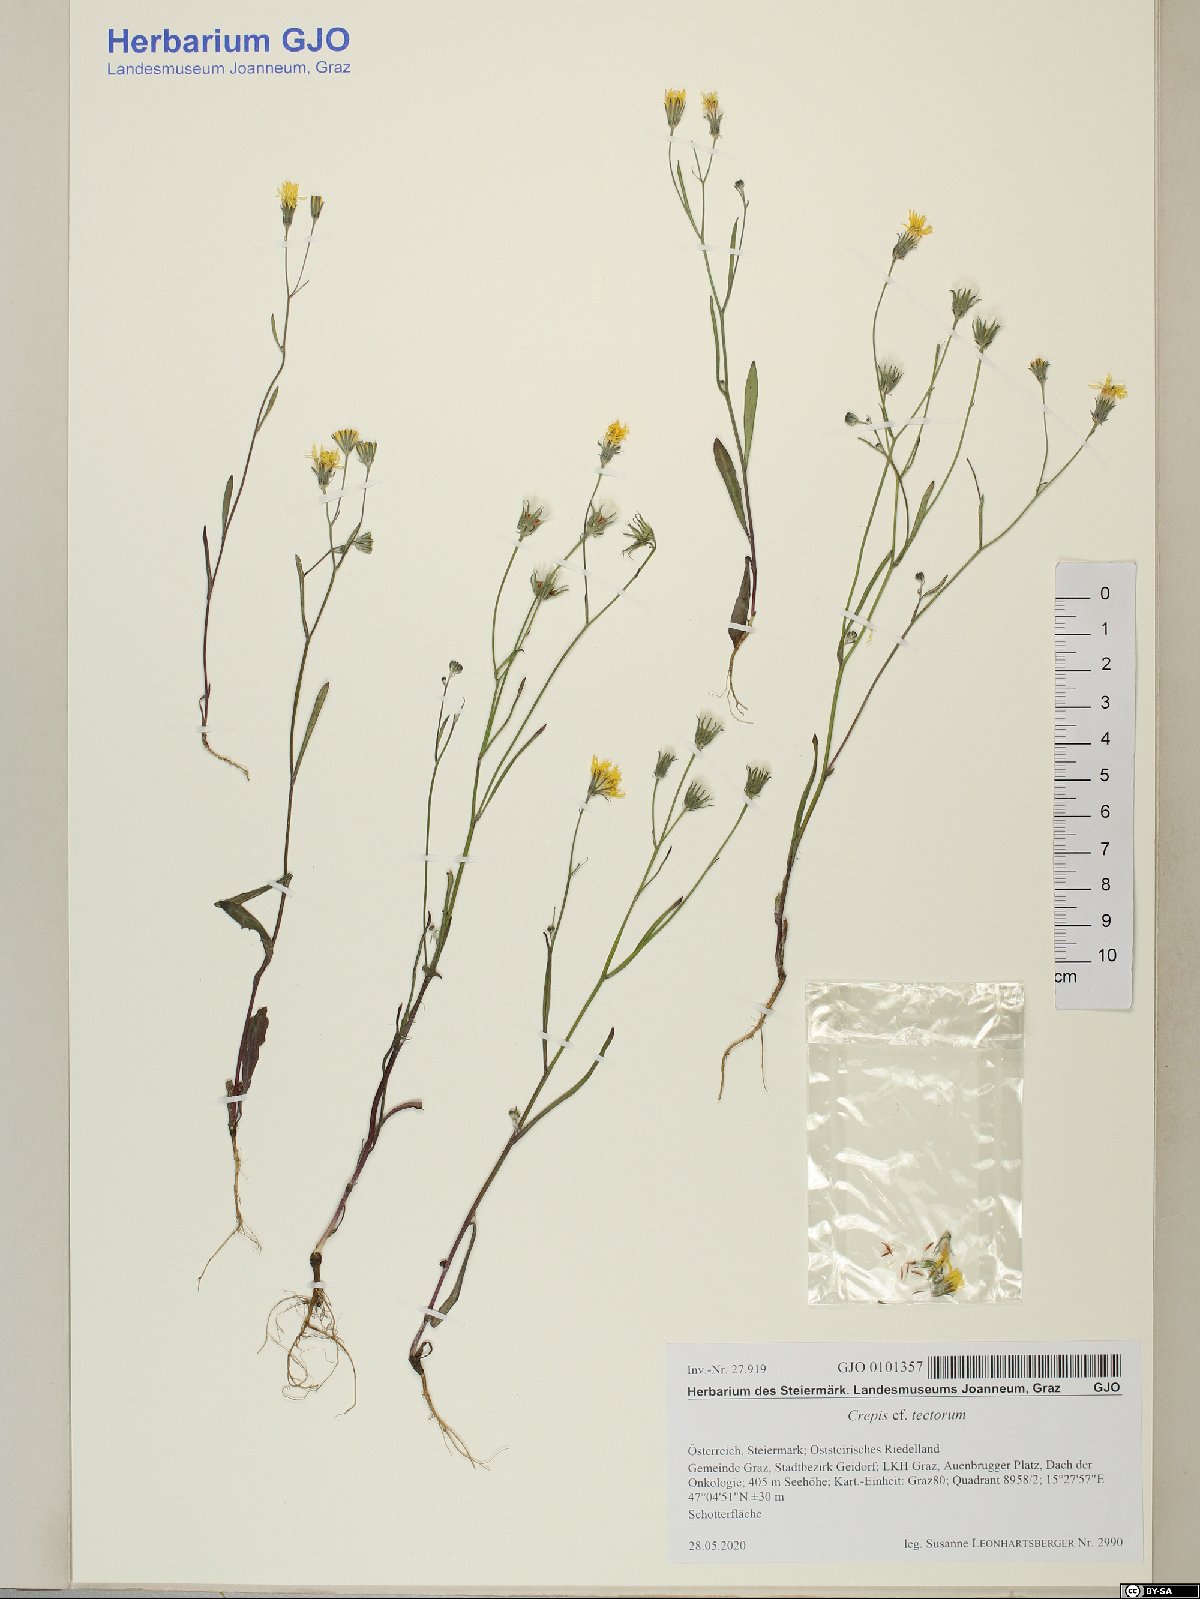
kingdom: Plantae
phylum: Tracheophyta
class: Magnoliopsida
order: Asterales
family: Asteraceae
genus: Crepis
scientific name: Crepis tectorum
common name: Narrow-leaved hawk's-beard
